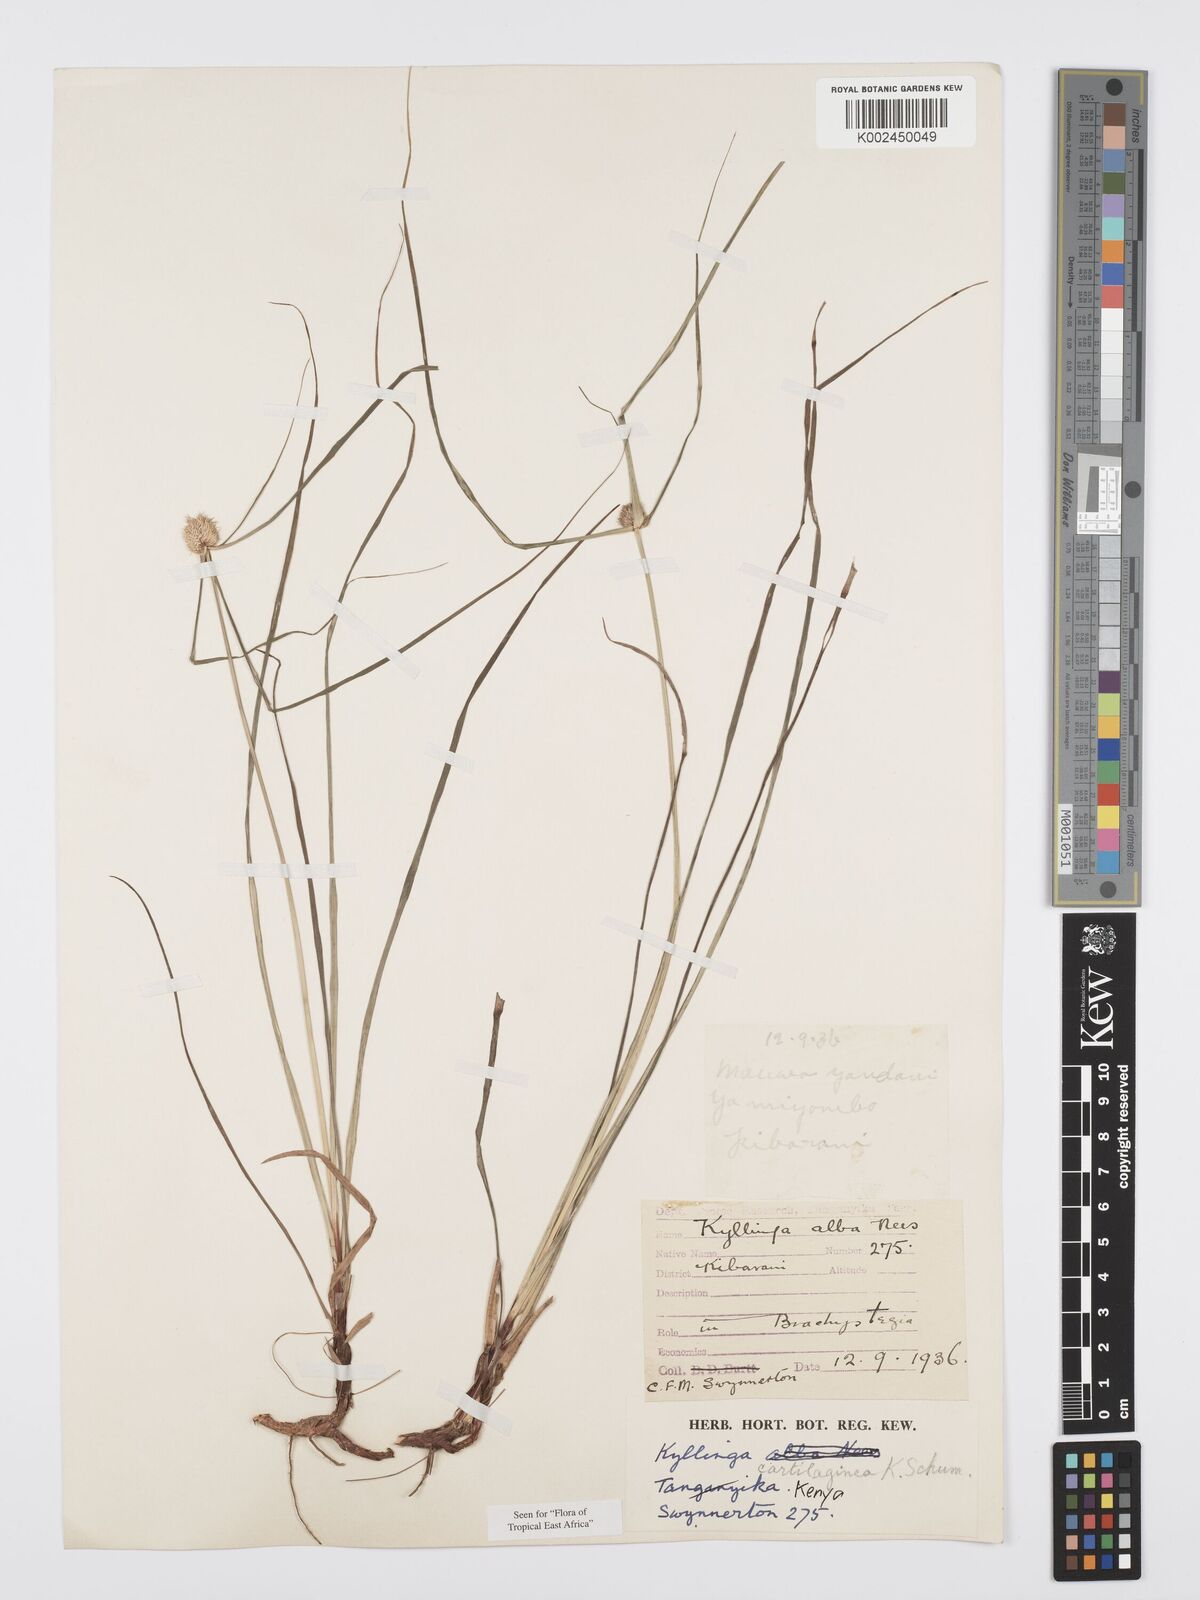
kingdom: Plantae
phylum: Tracheophyta
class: Liliopsida
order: Poales
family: Cyperaceae
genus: Cyperus
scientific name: Cyperus cartilagineus
